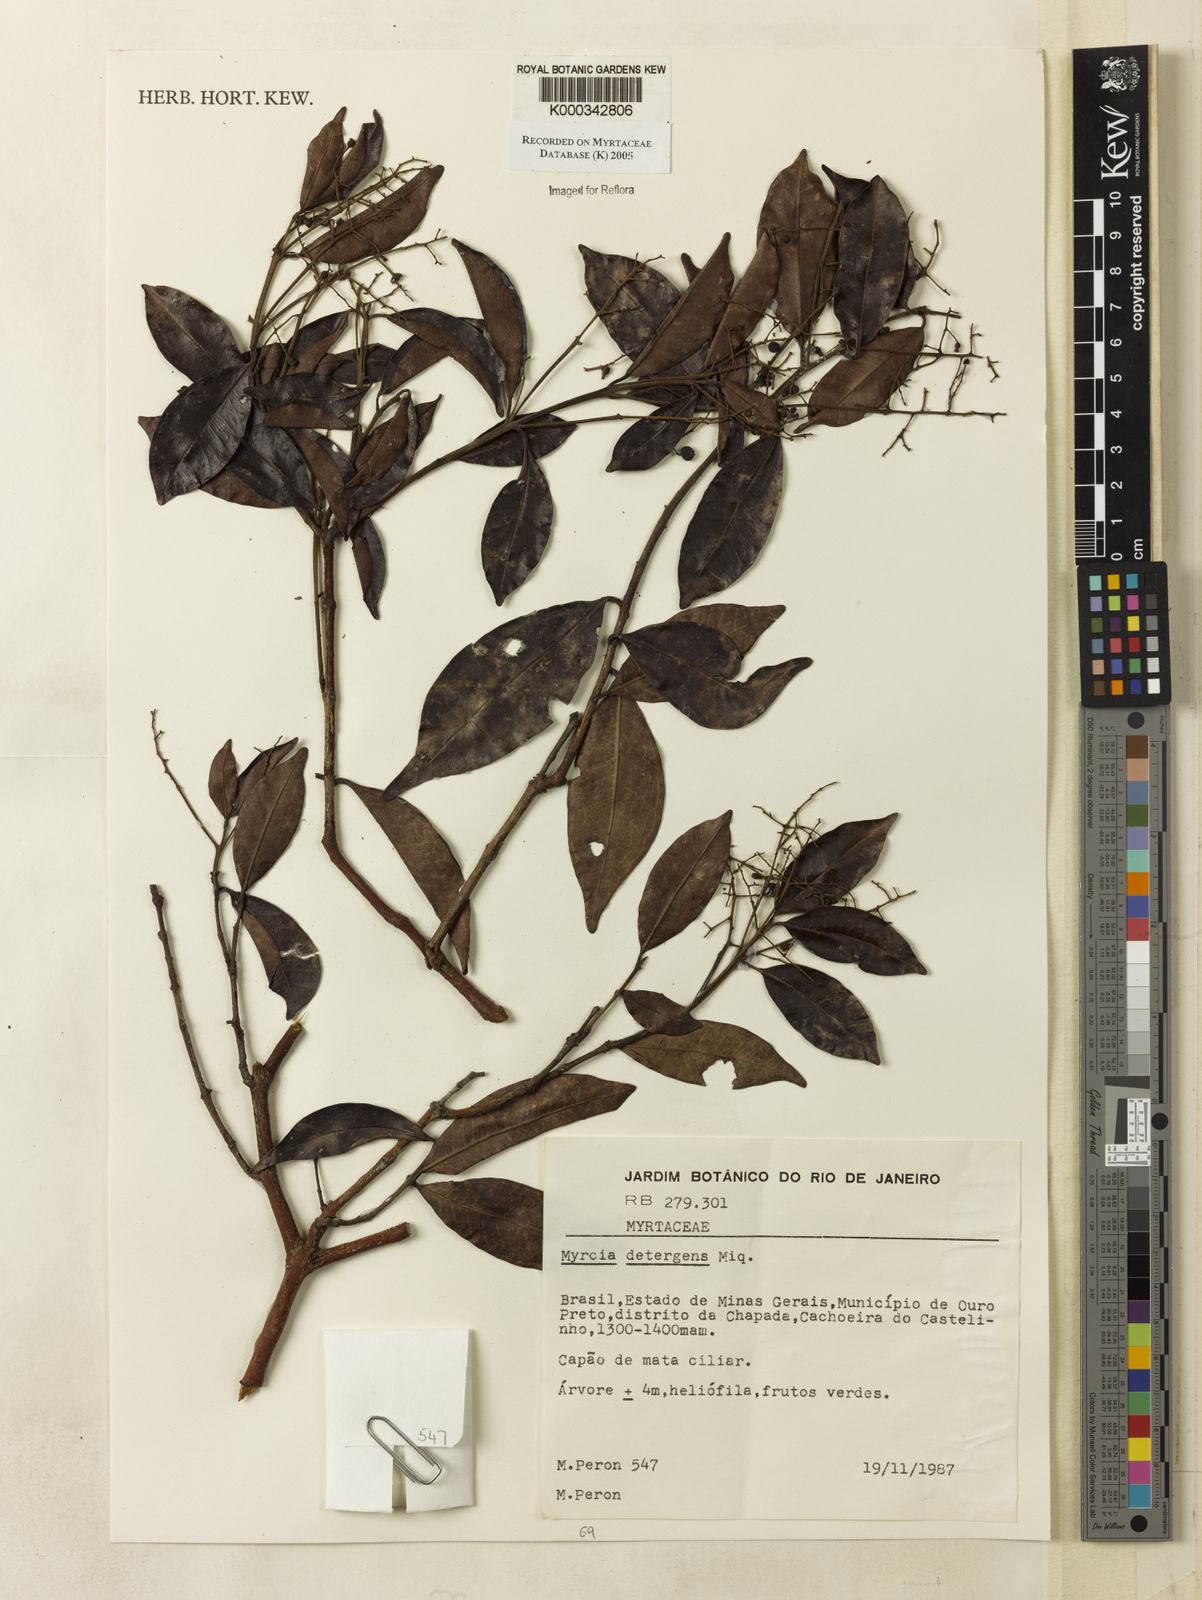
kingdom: Plantae
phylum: Tracheophyta
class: Magnoliopsida
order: Myrtales
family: Myrtaceae
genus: Myrcia
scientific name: Myrcia amazonica
